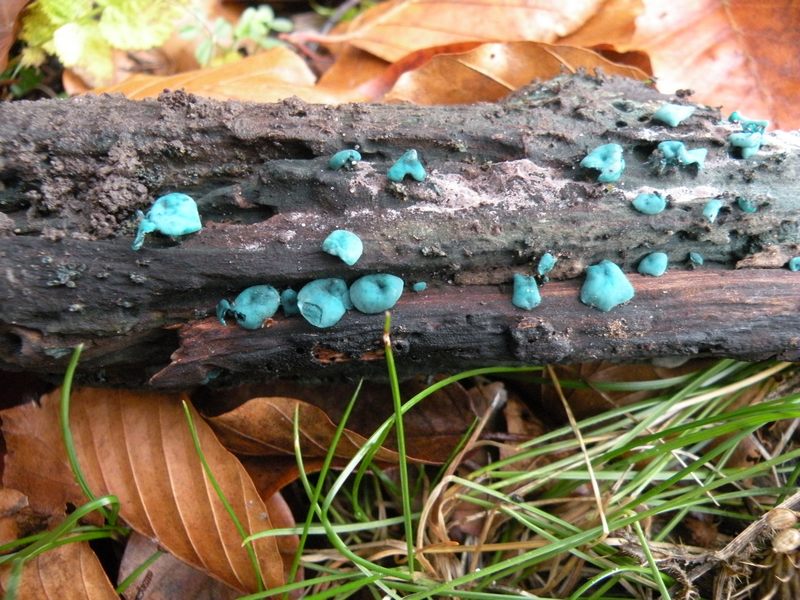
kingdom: Fungi
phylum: Ascomycota
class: Leotiomycetes
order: Helotiales
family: Chlorociboriaceae
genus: Chlorociboria
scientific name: Chlorociboria aeruginascens
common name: almindelig grønskive
